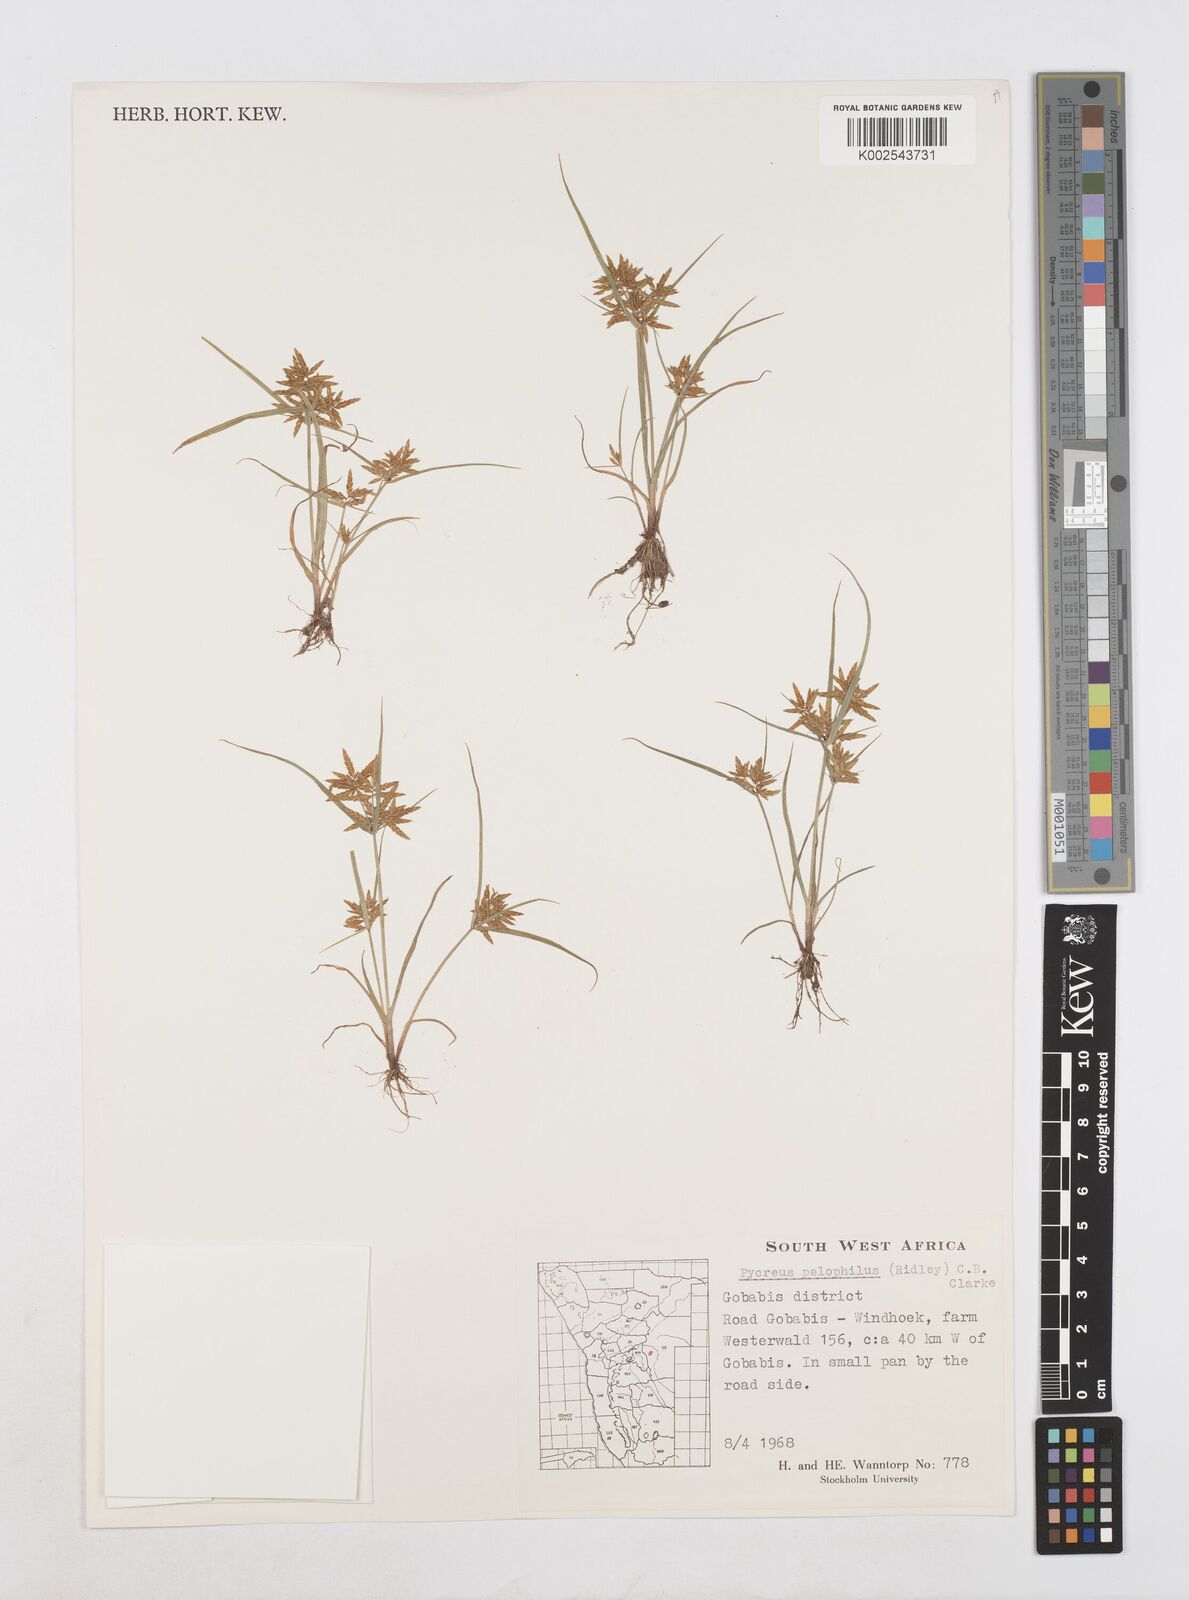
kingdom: Plantae
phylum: Tracheophyta
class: Liliopsida
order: Poales
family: Cyperaceae
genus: Cyperus
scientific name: Cyperus pelophilus
